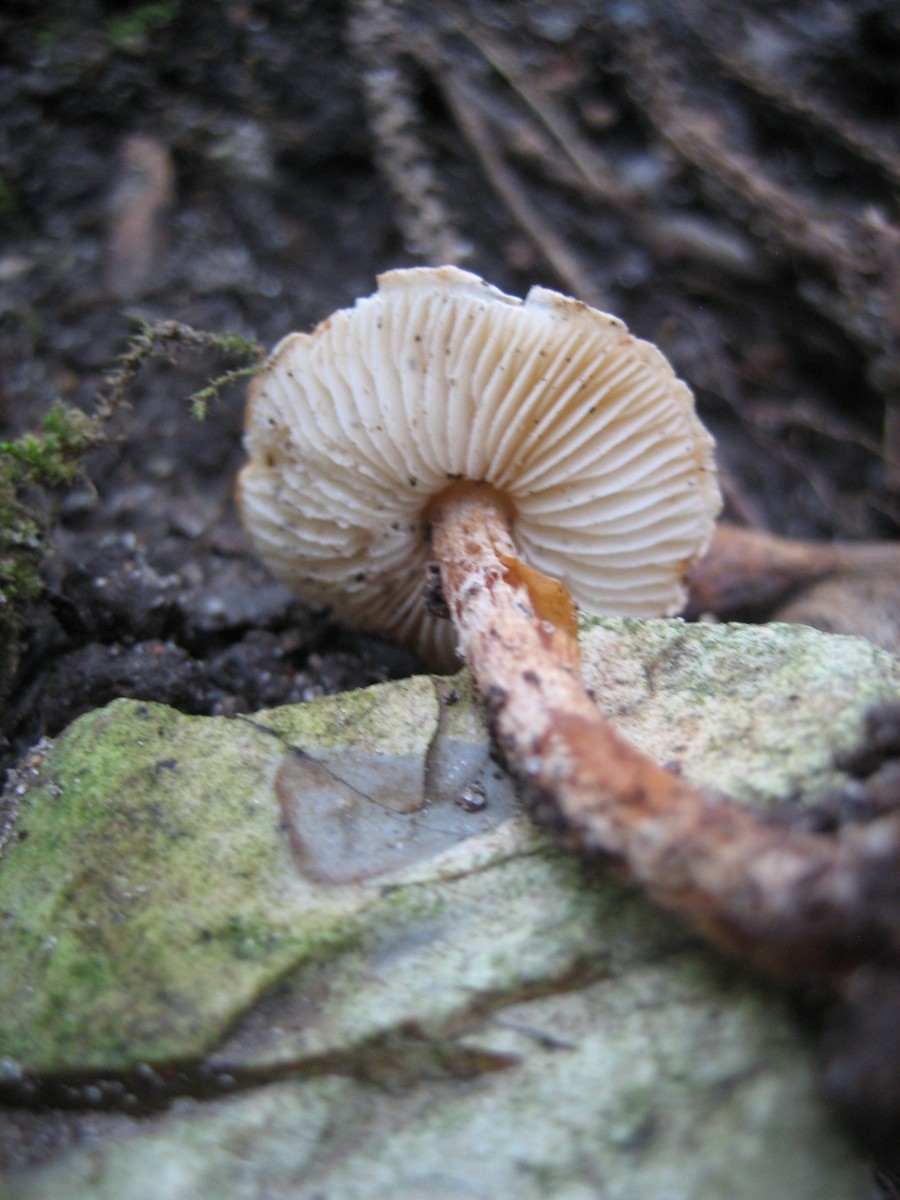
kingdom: Fungi
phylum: Basidiomycota
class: Agaricomycetes
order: Agaricales
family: Agaricaceae
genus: Lepiota
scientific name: Lepiota
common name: parasolhat
